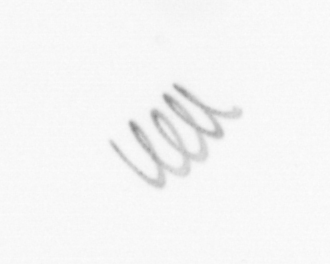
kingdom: Chromista
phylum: Ochrophyta
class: Bacillariophyceae
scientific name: Bacillariophyceae
